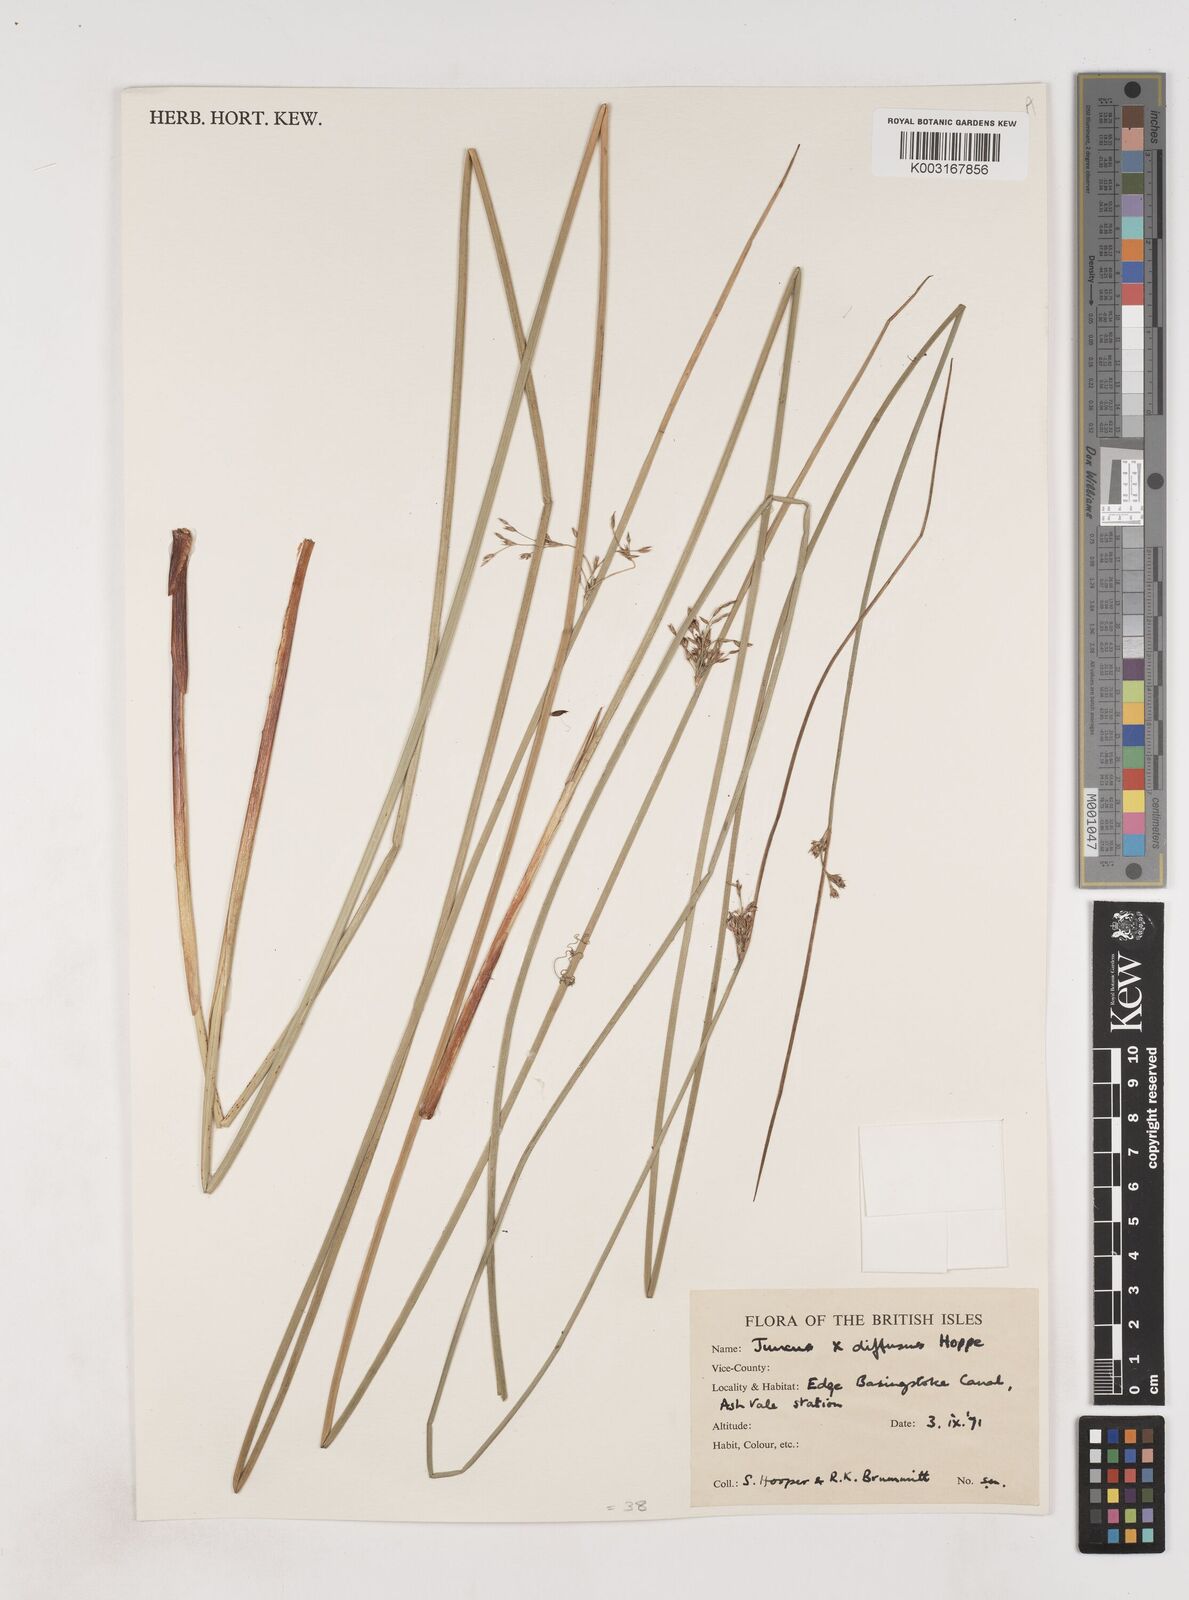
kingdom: Plantae
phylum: Tracheophyta
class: Liliopsida
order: Poales
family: Juncaceae
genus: Juncus
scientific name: Juncus effusus
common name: Soft rush
